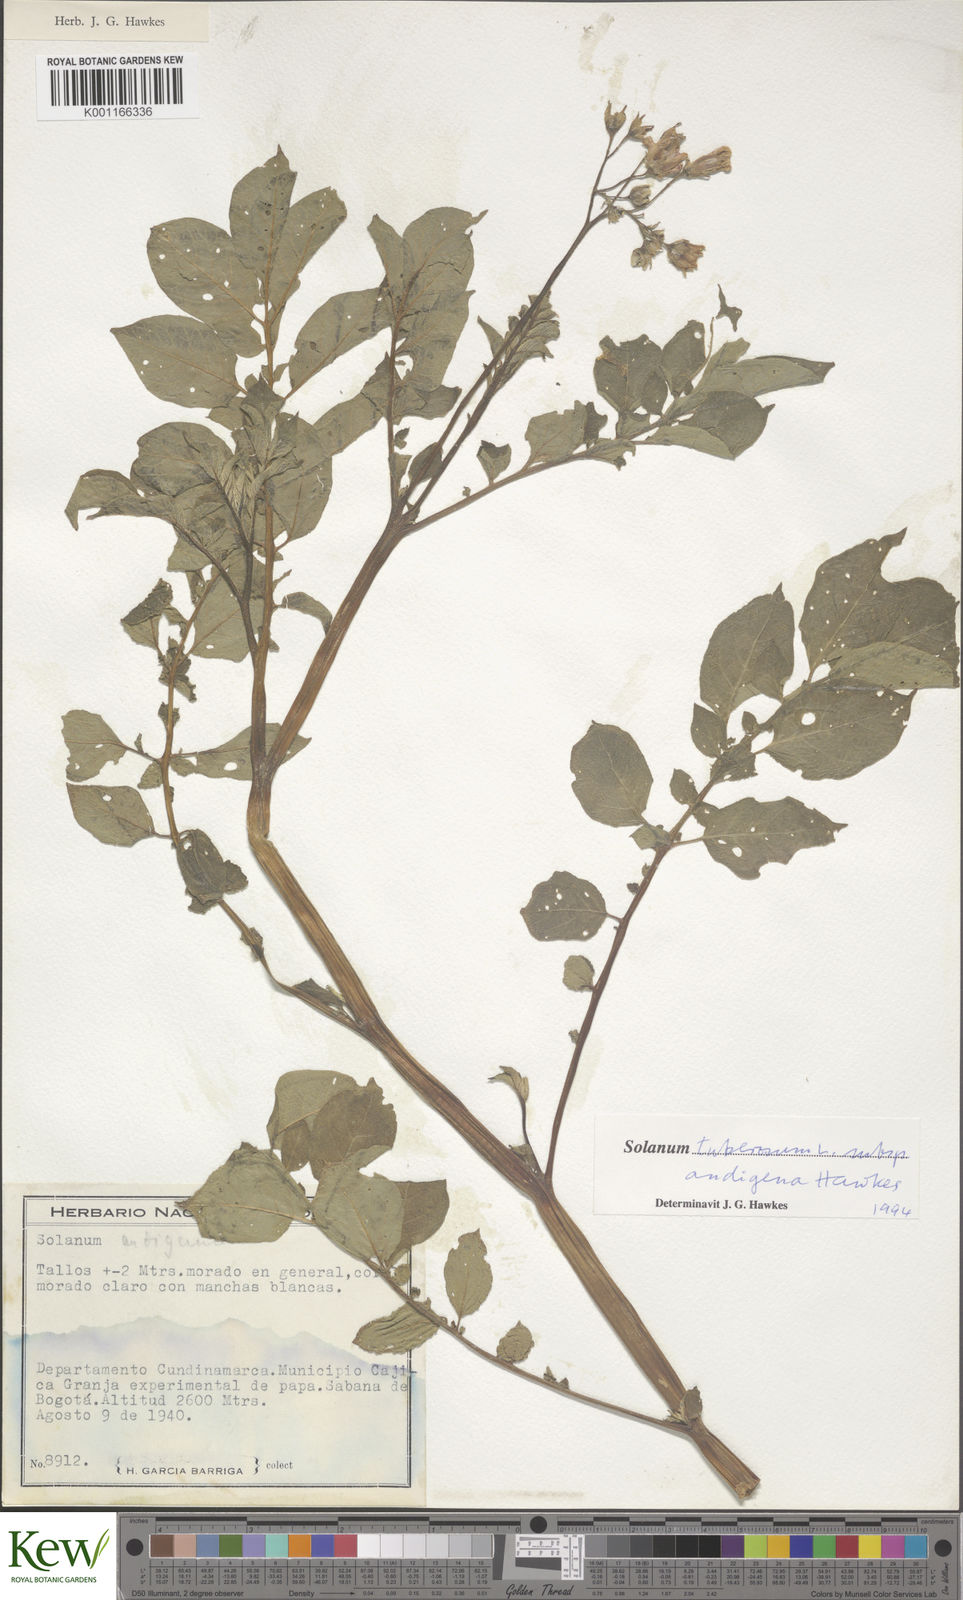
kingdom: Plantae
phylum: Tracheophyta
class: Magnoliopsida
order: Solanales
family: Solanaceae
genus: Solanum
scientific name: Solanum tuberosum
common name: Potato
